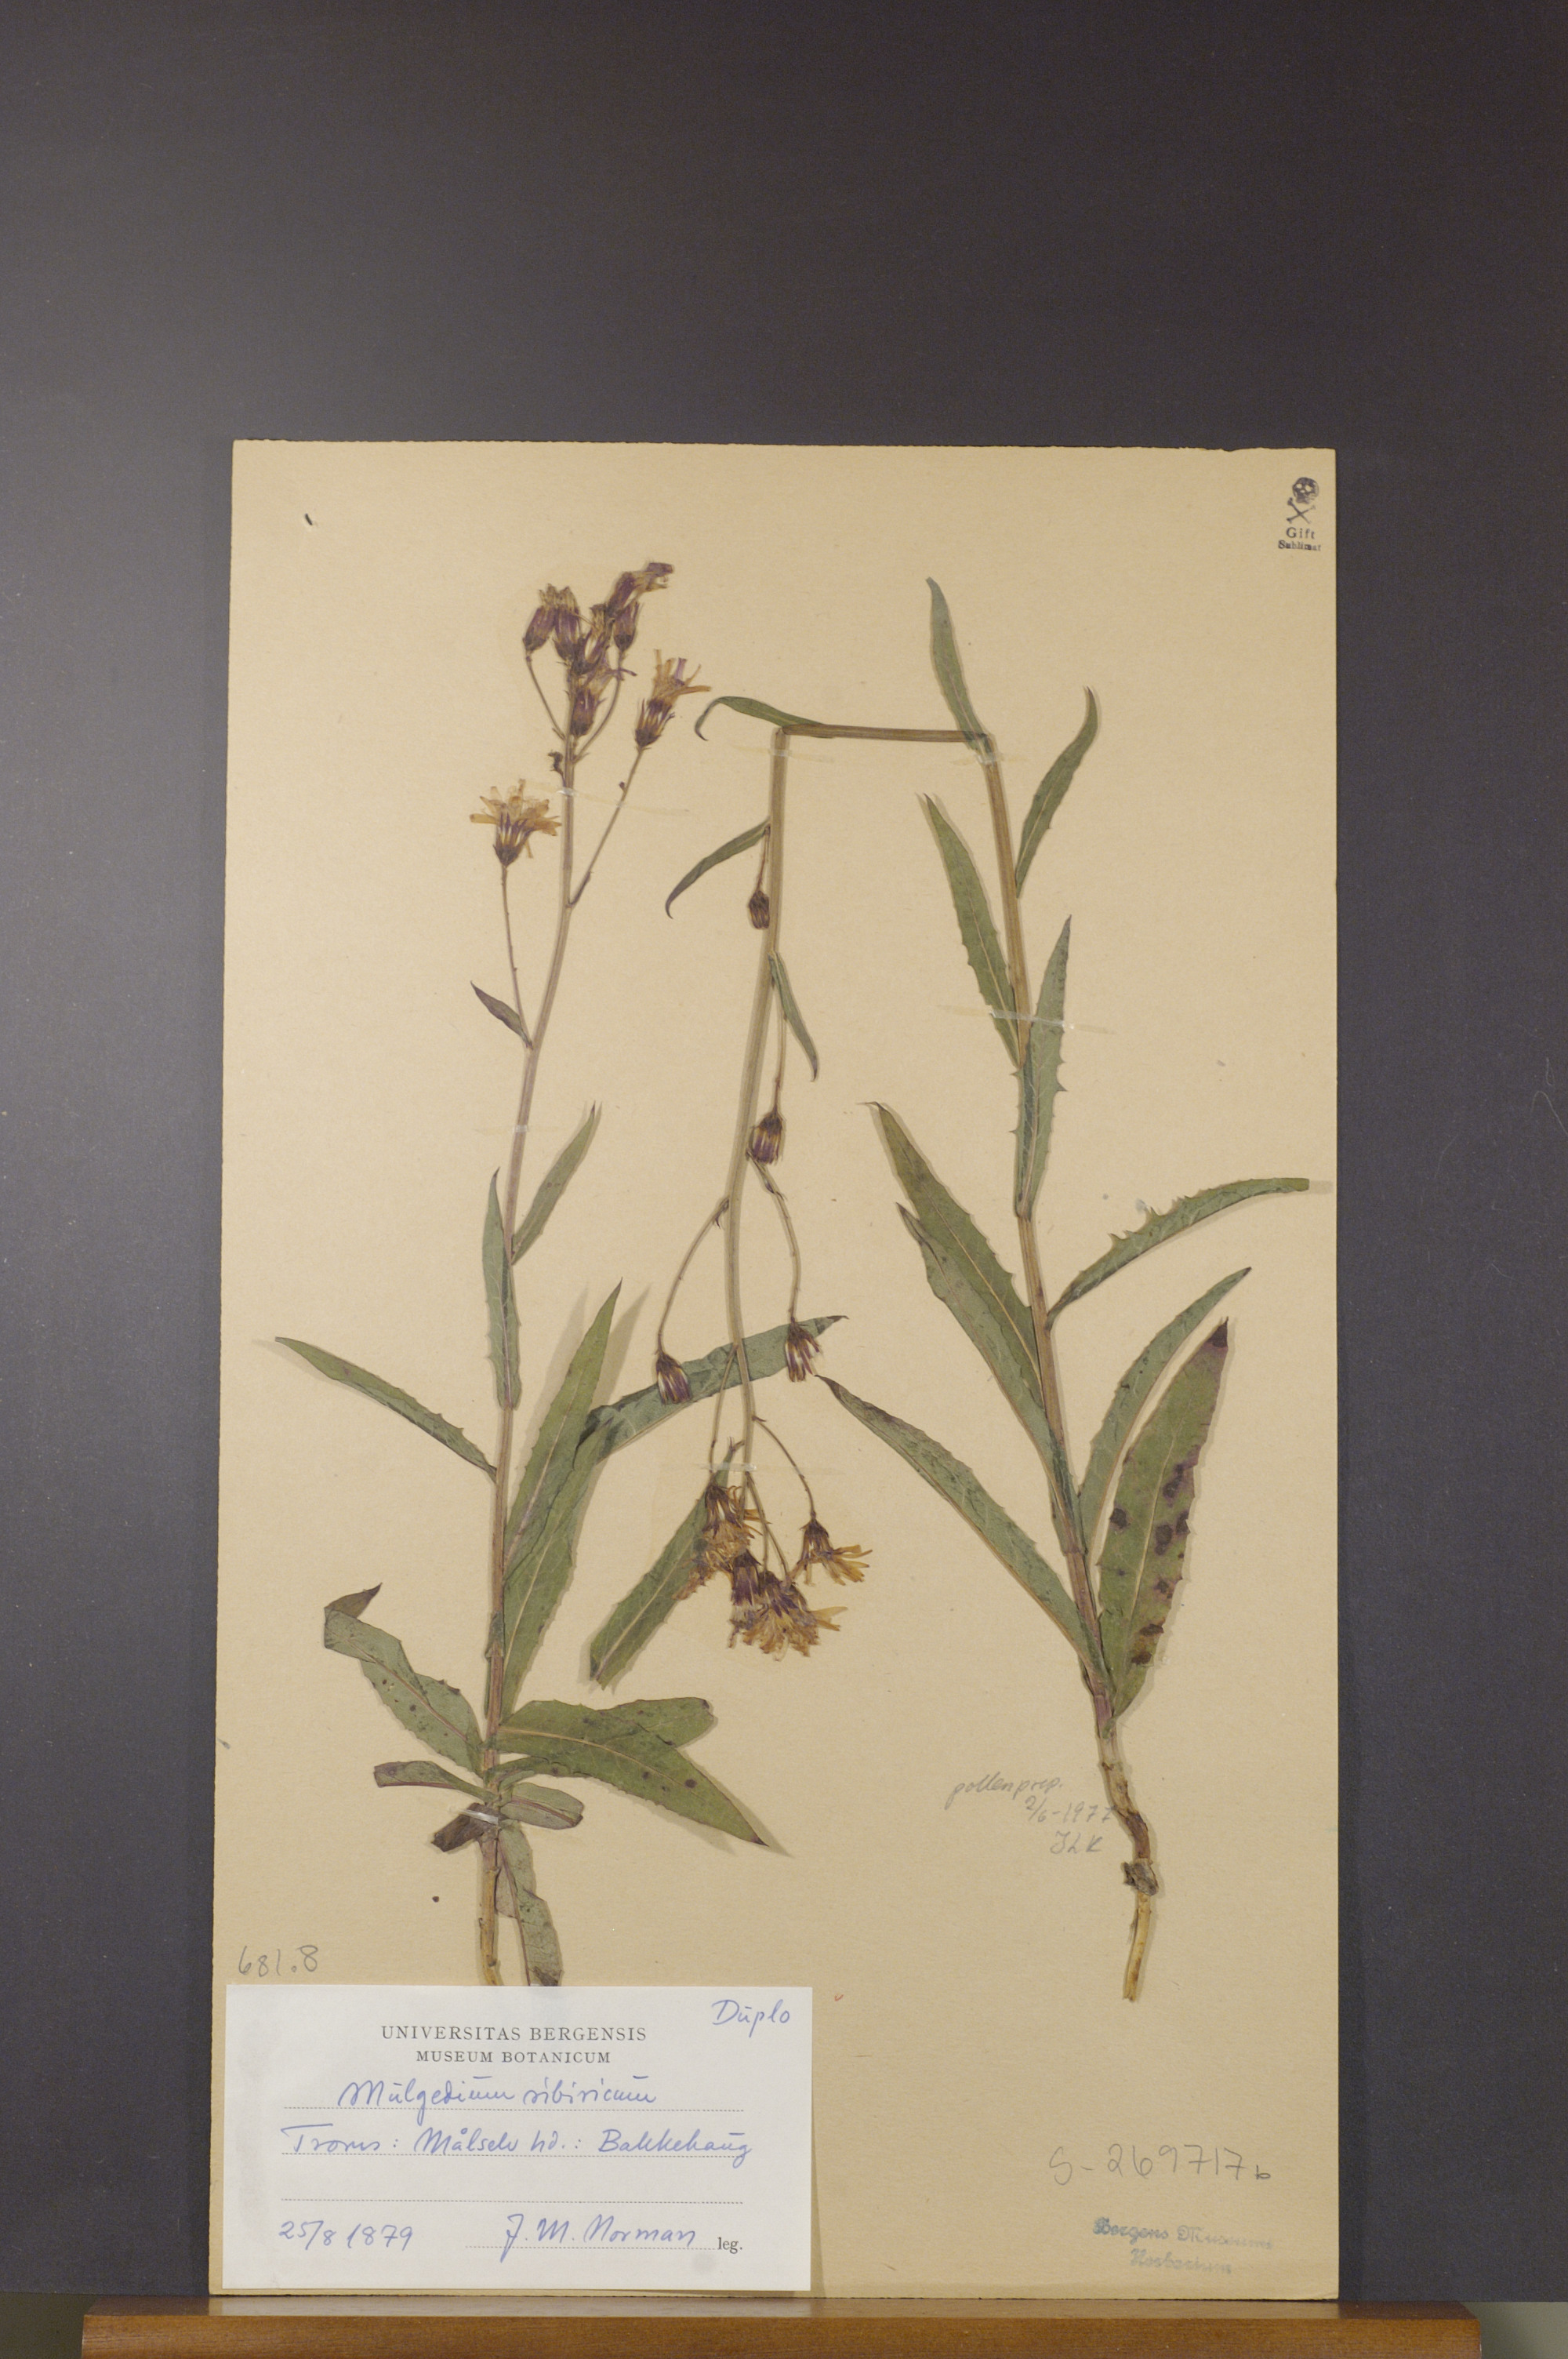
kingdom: Plantae
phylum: Tracheophyta
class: Magnoliopsida
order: Asterales
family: Asteraceae
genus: Lactuca
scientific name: Lactuca sibirica
